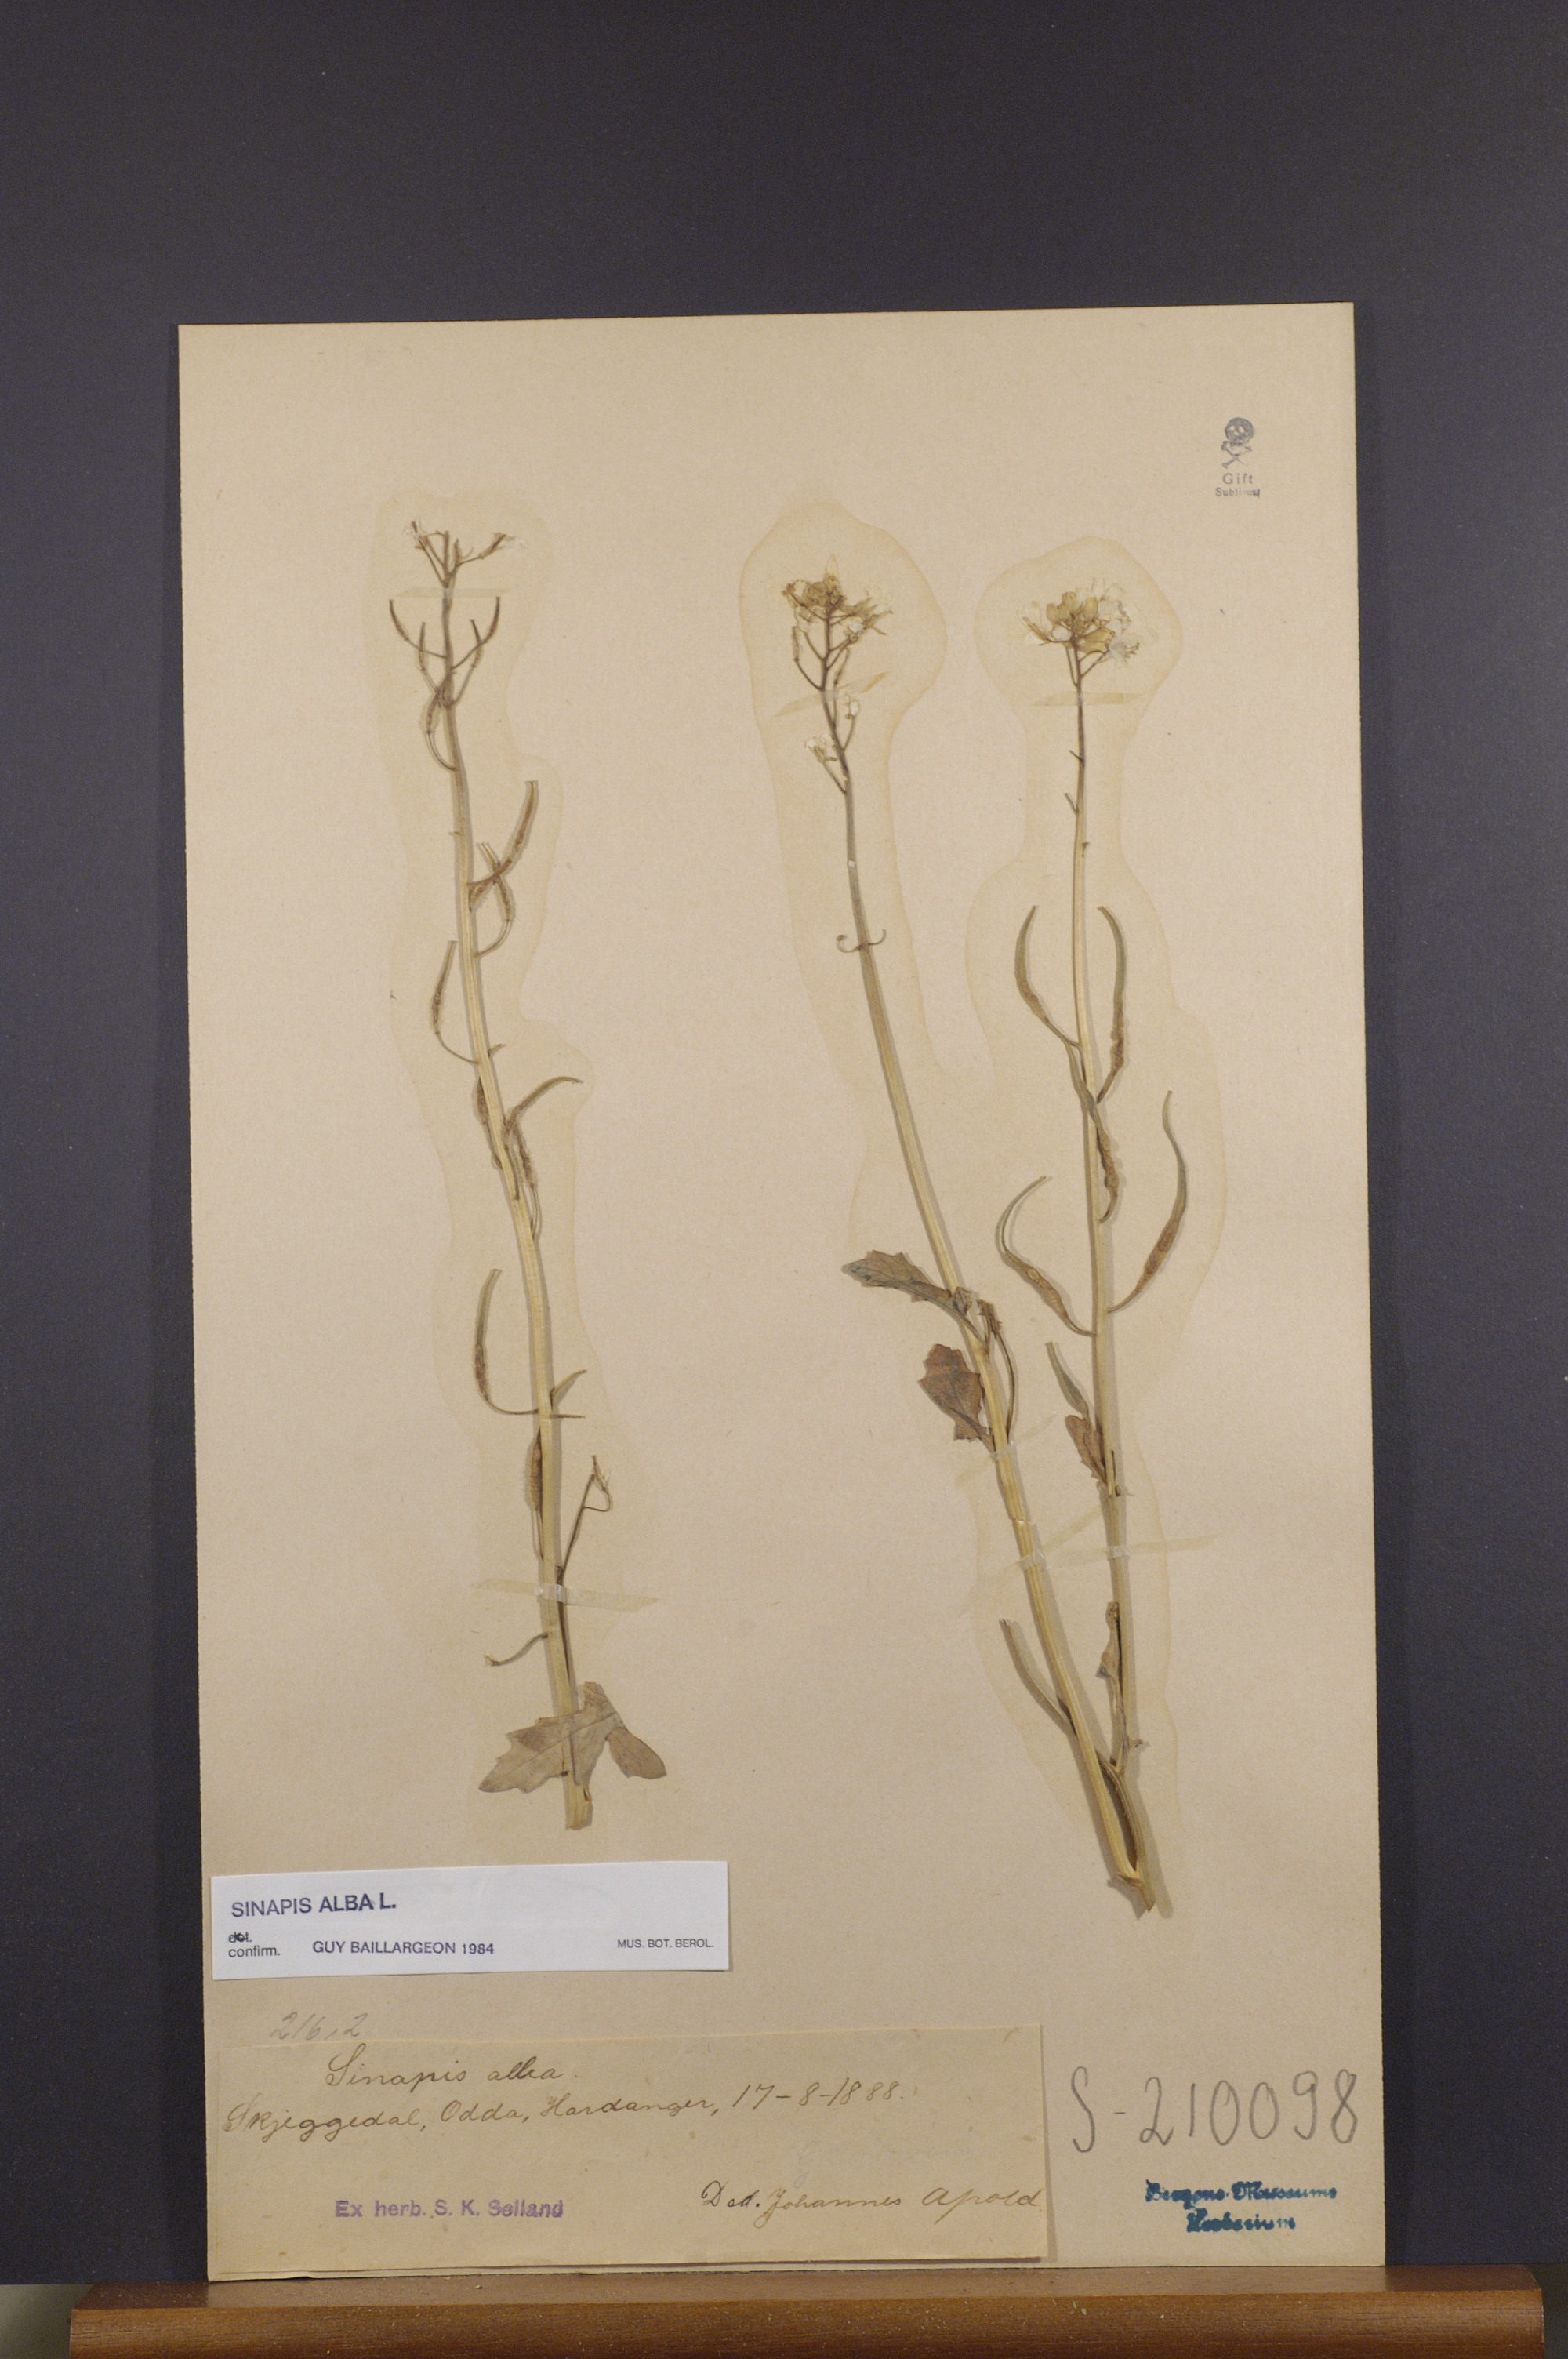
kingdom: Plantae
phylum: Tracheophyta
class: Magnoliopsida
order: Brassicales
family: Brassicaceae
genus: Sinapis
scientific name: Sinapis alba
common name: White mustard
